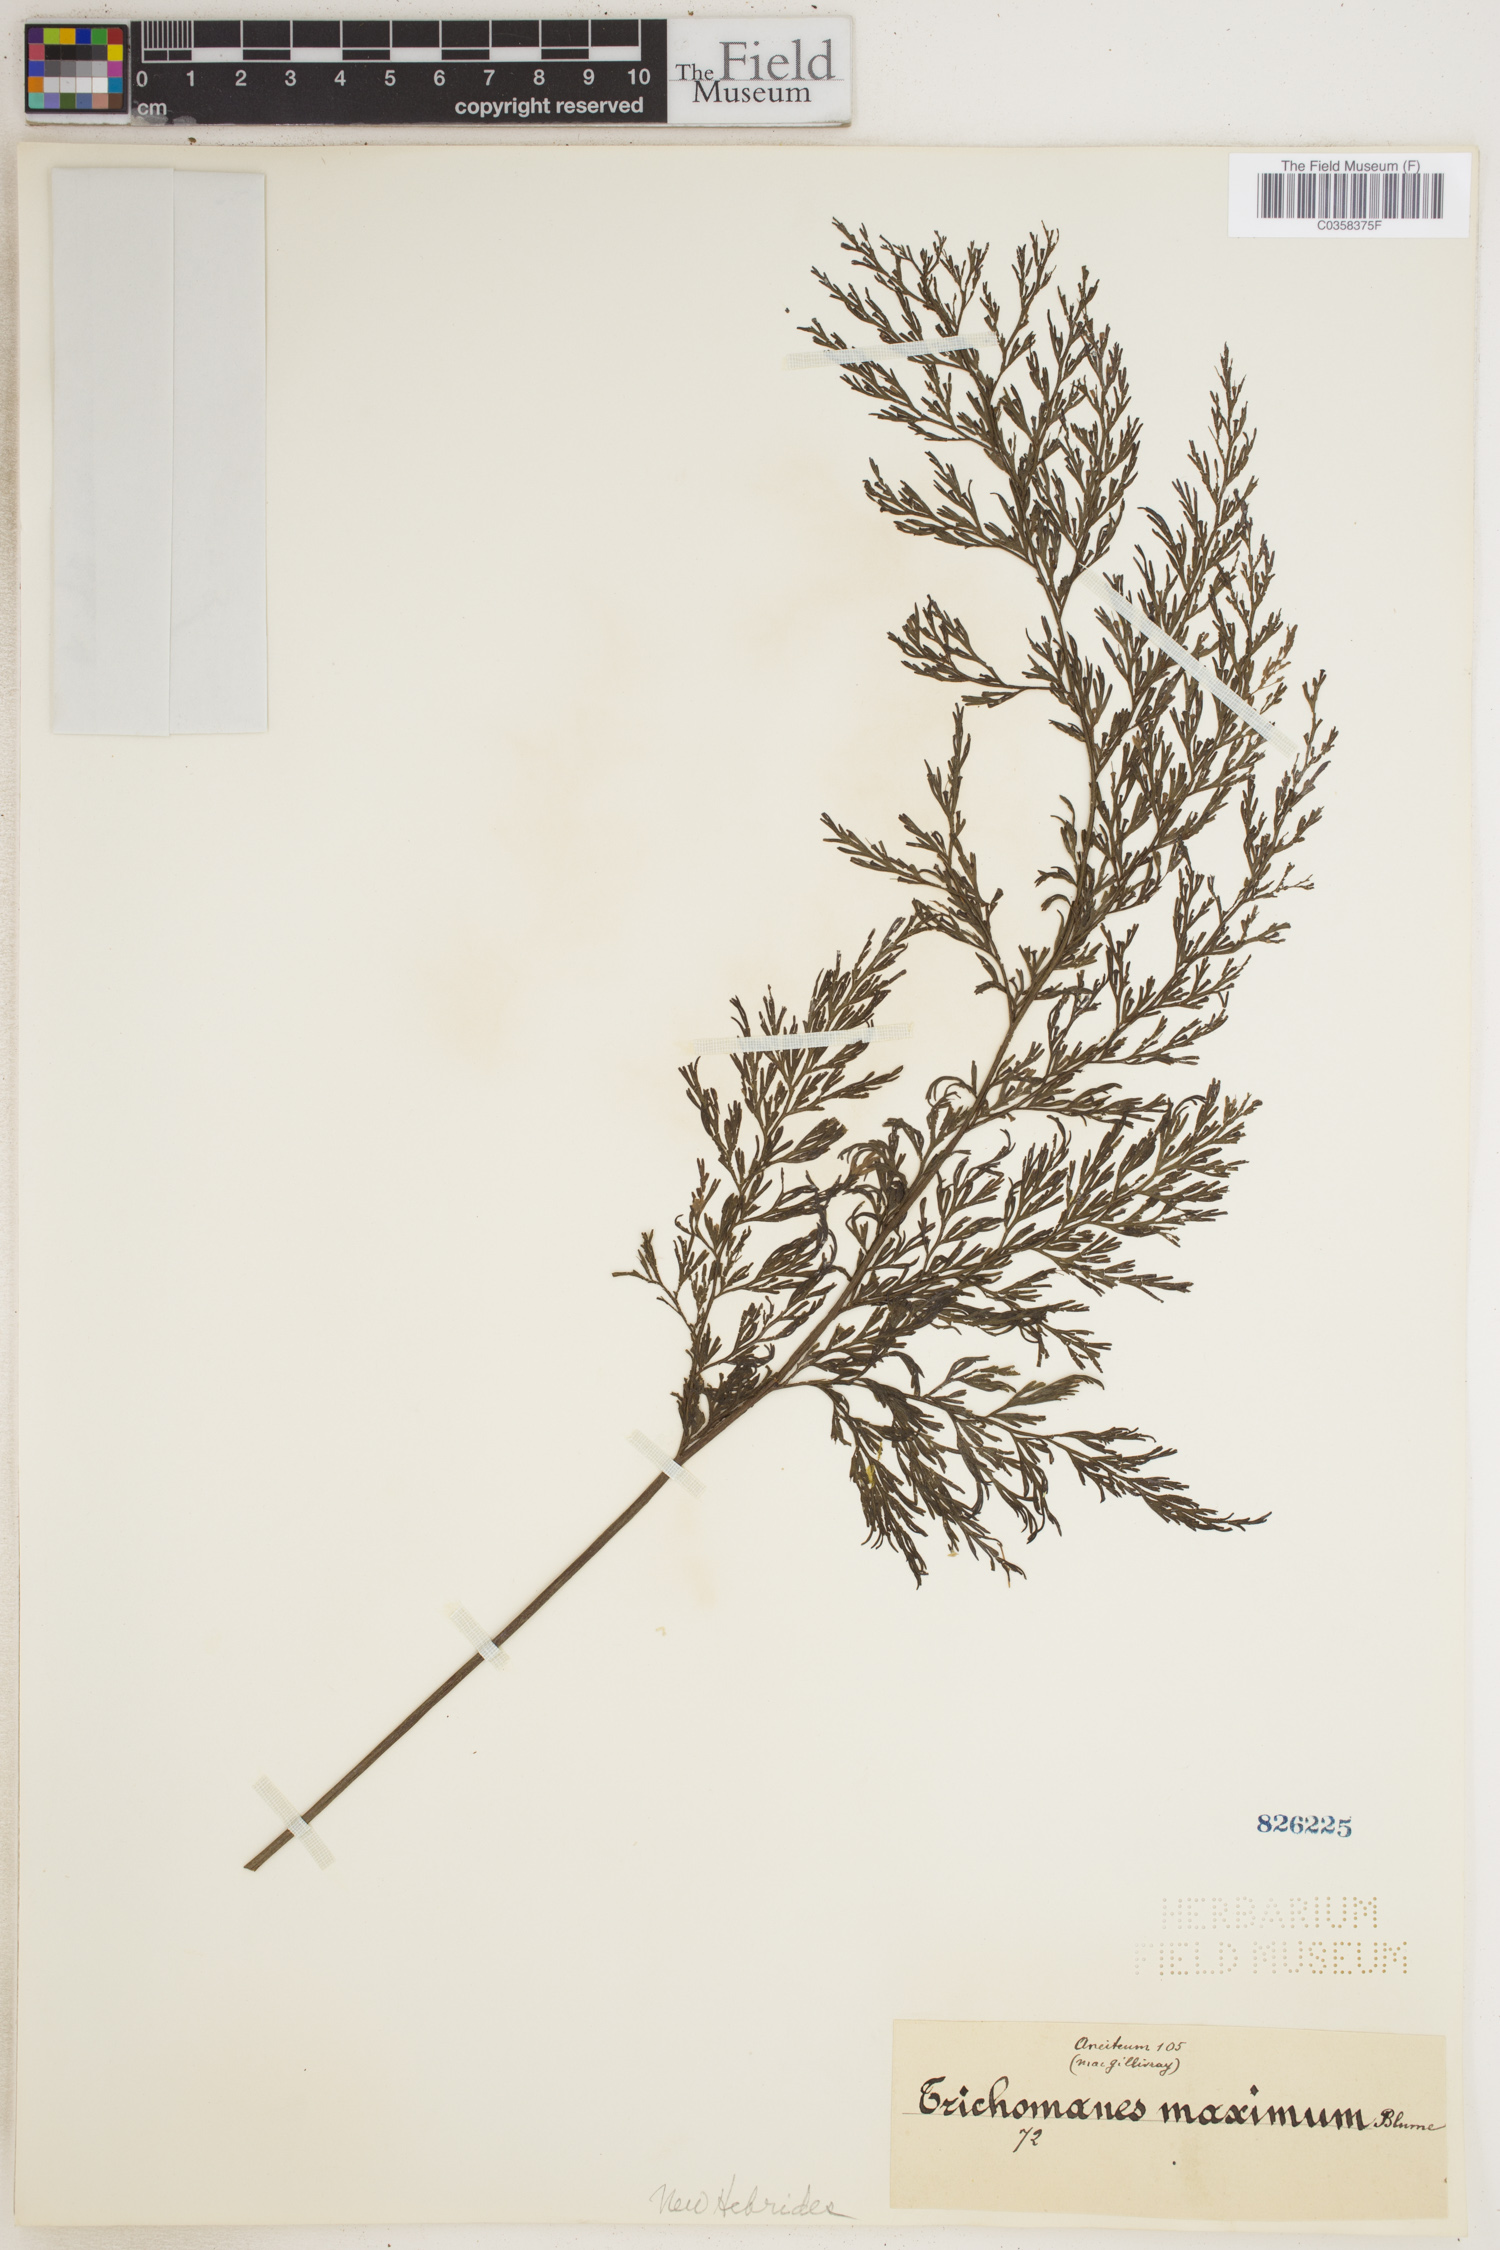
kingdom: Plantae
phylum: Tracheophyta
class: Polypodiopsida
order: Hymenophyllales
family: Hymenophyllaceae
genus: Vandenboschia
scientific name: Vandenboschia maxima
